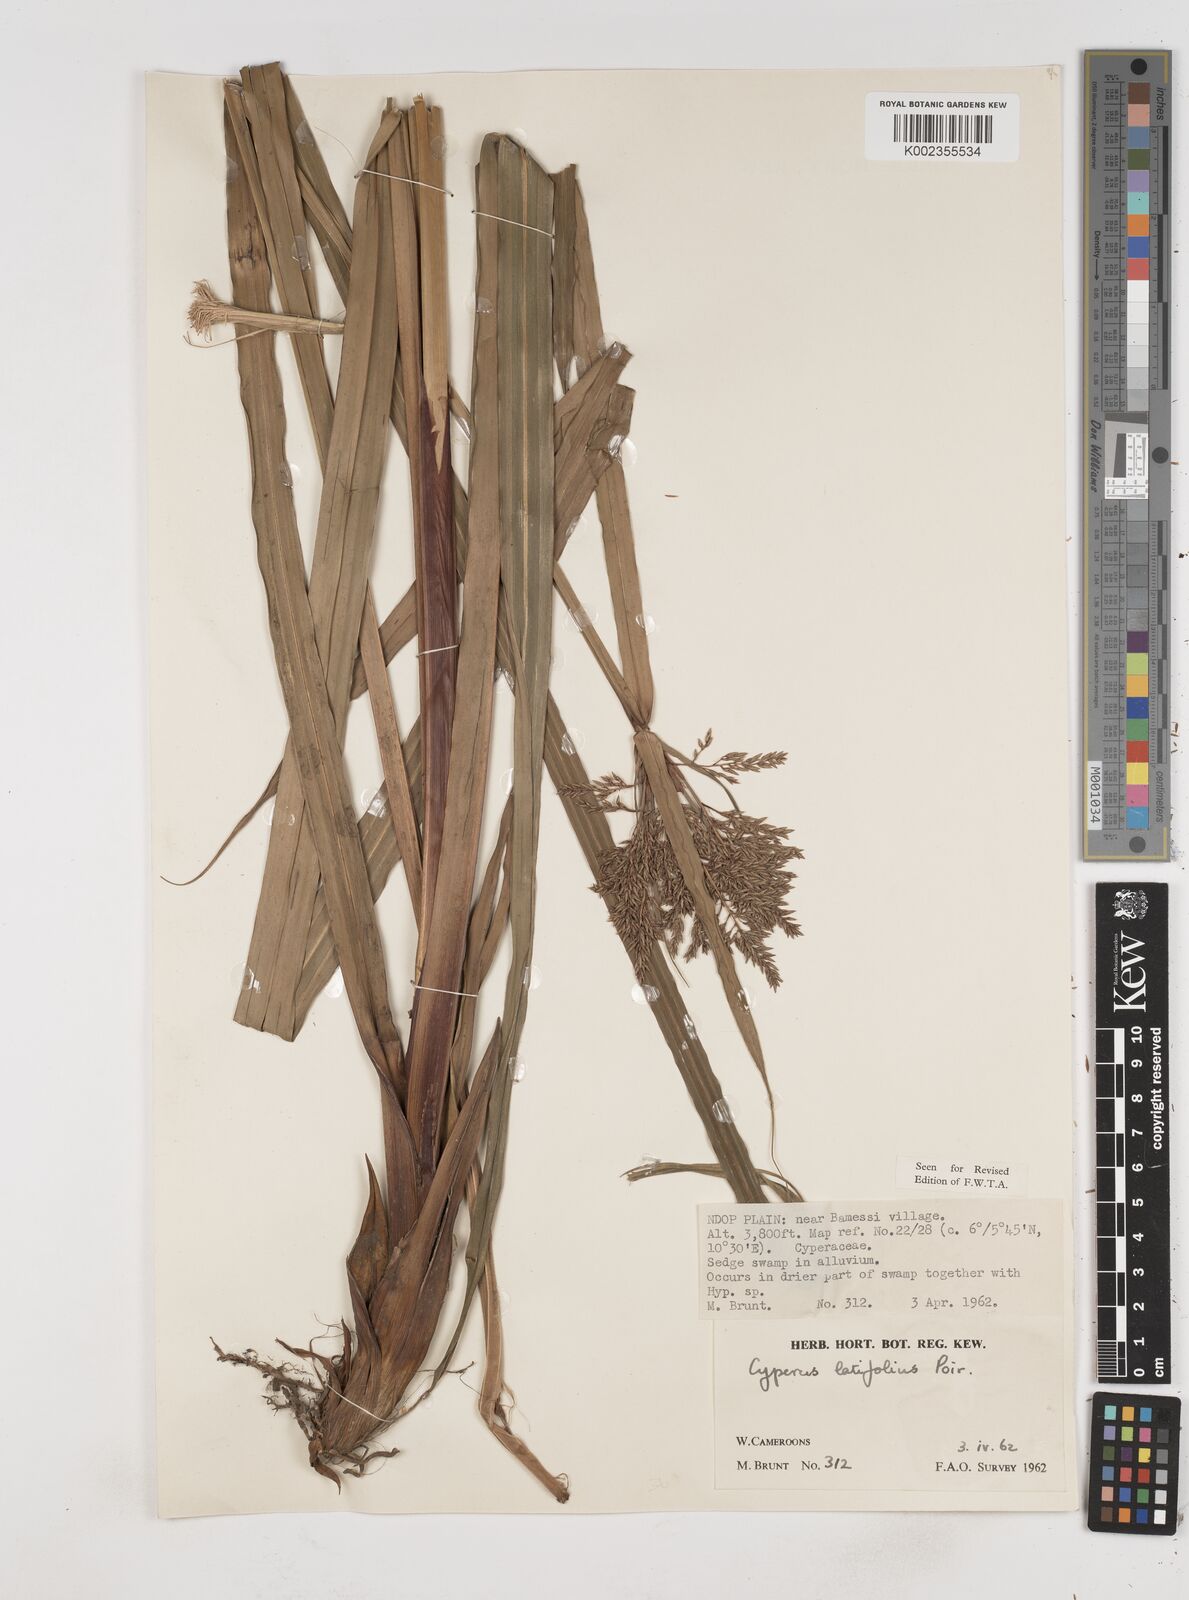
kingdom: Plantae
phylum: Tracheophyta
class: Liliopsida
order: Poales
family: Cyperaceae
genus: Cyperus
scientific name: Cyperus latifolius
